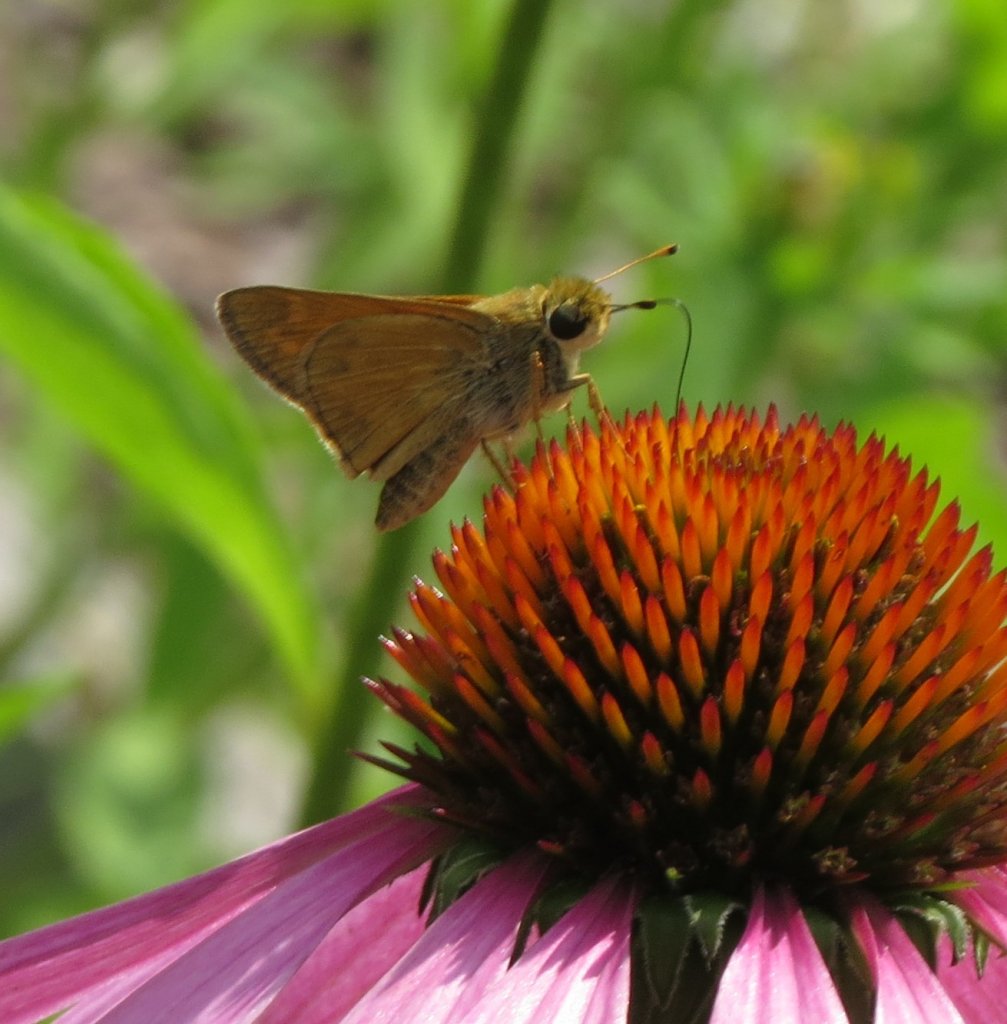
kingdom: Animalia
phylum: Arthropoda
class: Insecta
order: Lepidoptera
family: Hesperiidae
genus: Atalopedes
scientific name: Atalopedes campestris
